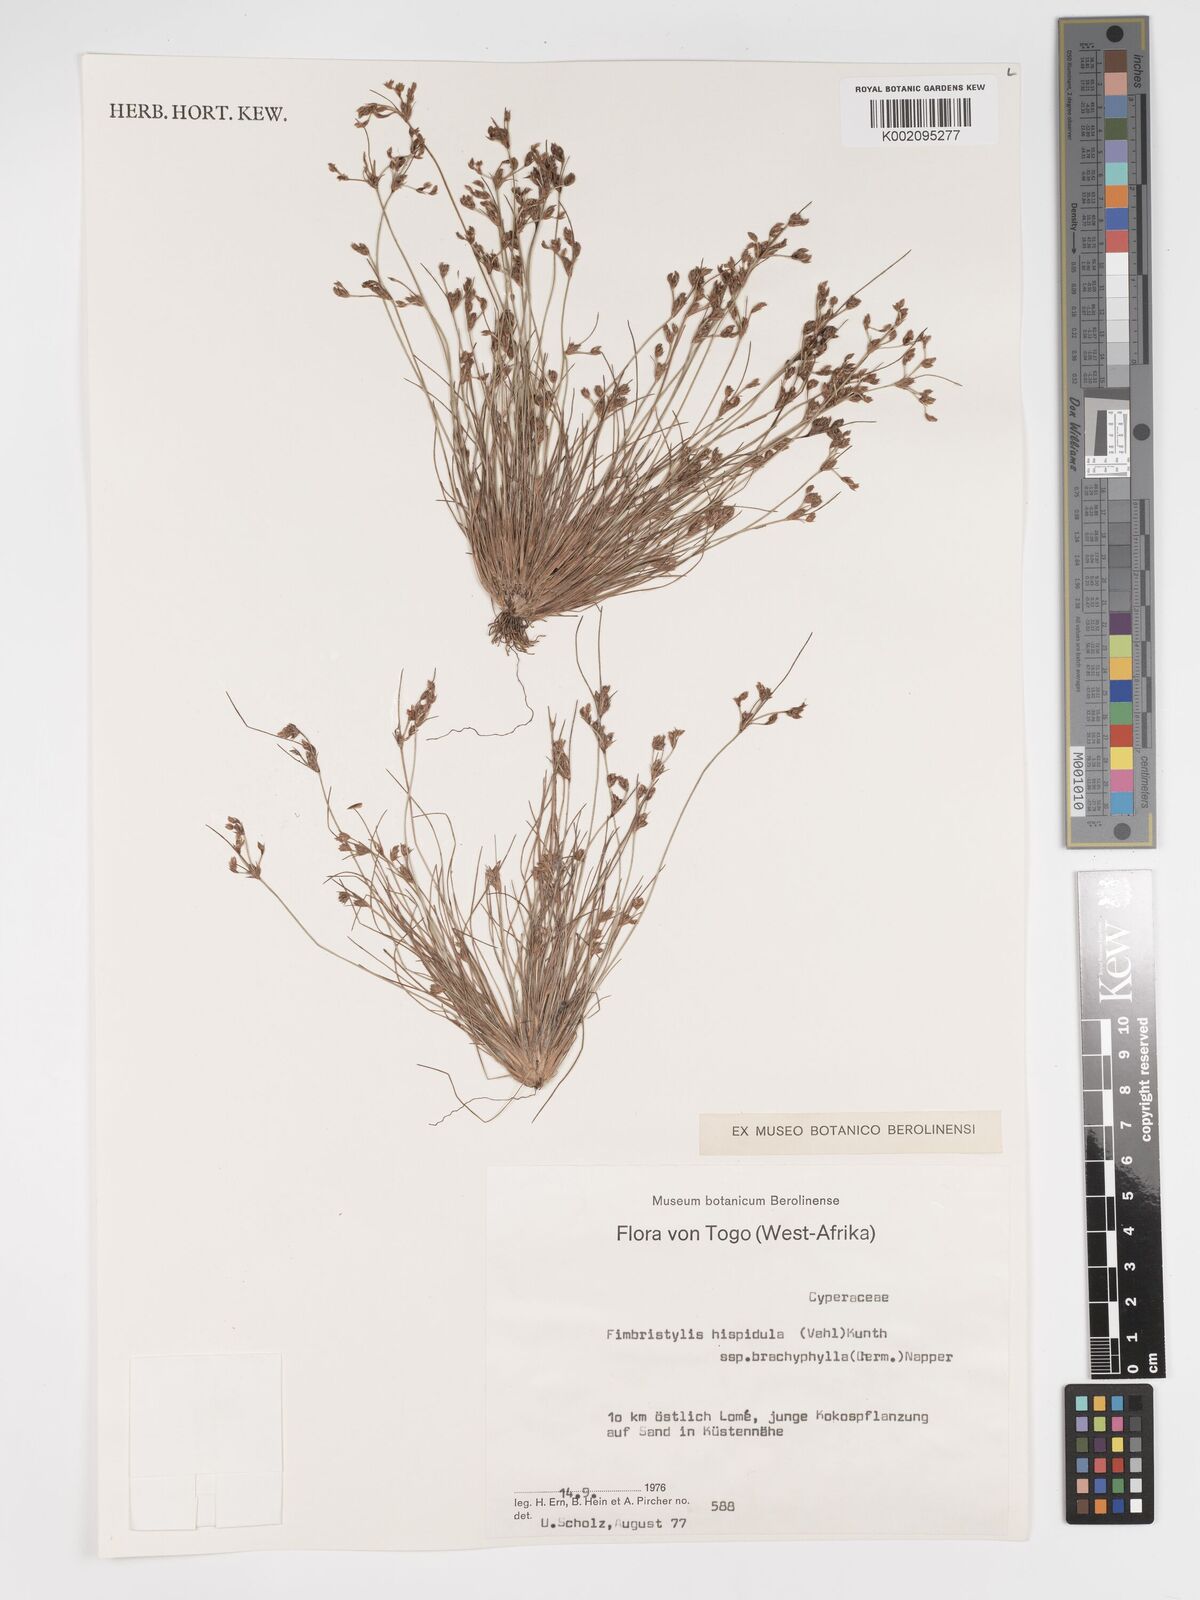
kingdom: Plantae
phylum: Tracheophyta
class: Liliopsida
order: Poales
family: Cyperaceae
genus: Bulbostylis
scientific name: Bulbostylis hispidula
